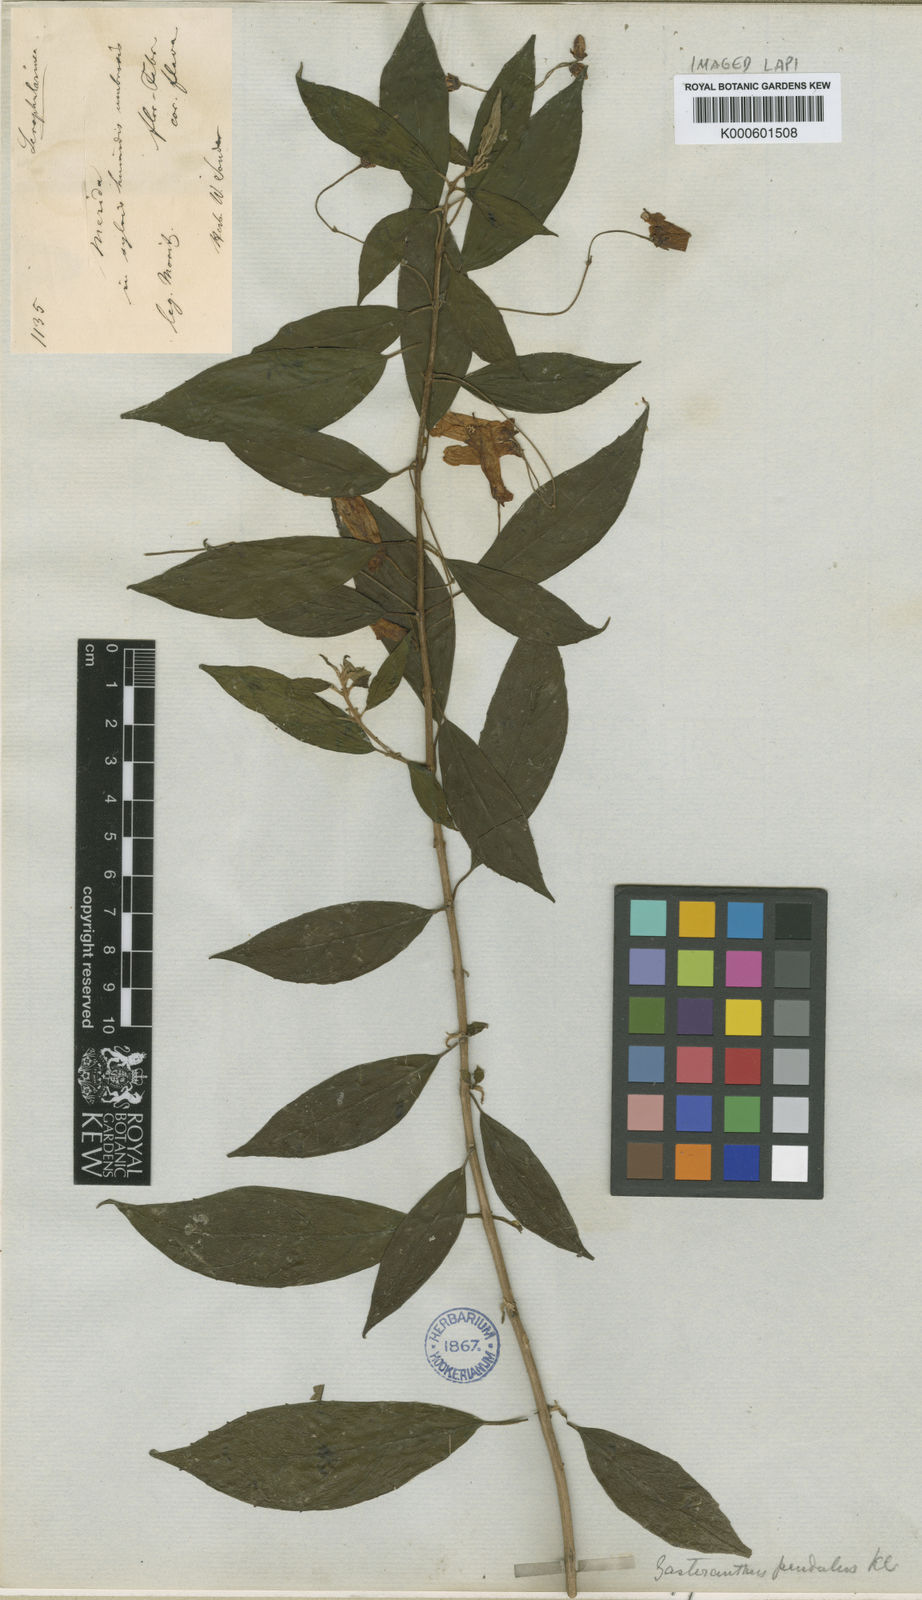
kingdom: Plantae
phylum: Tracheophyta
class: Magnoliopsida
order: Lamiales
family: Gesneriaceae
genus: Besleria
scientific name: Besleria pendula
